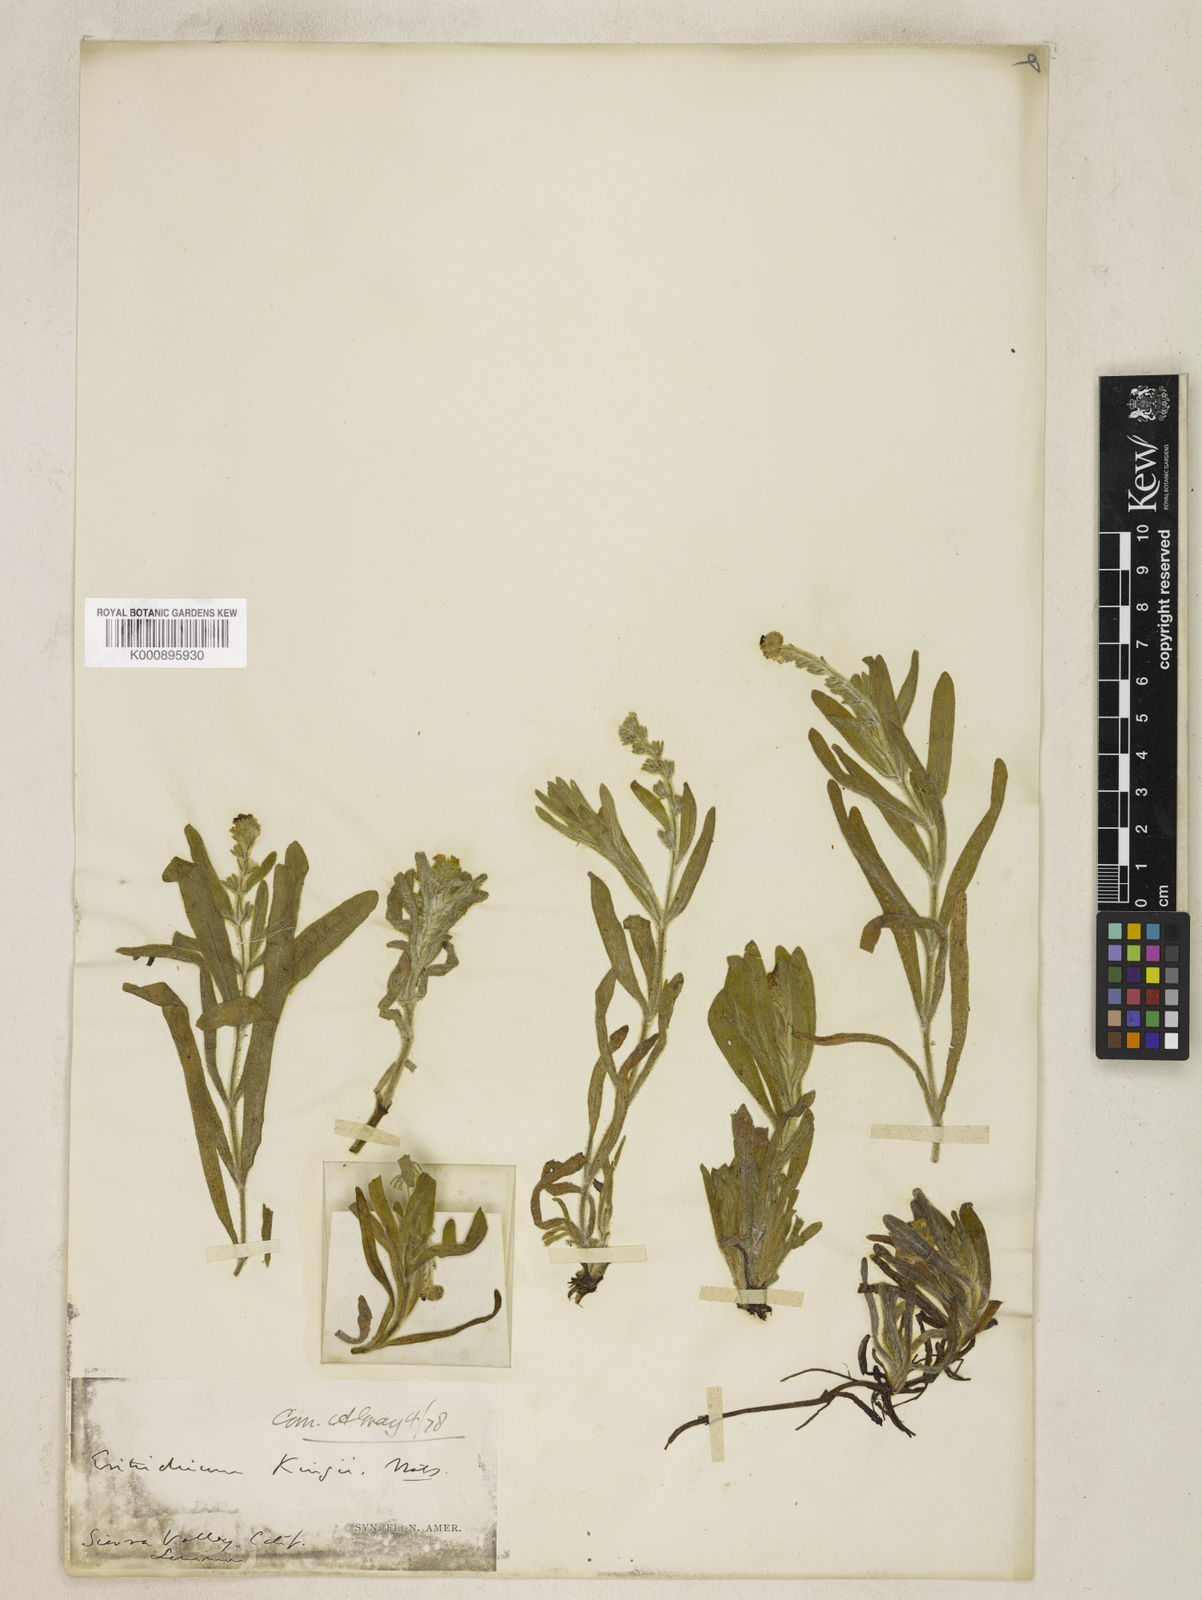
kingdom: Plantae
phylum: Tracheophyta
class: Magnoliopsida
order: Boraginales
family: Boraginaceae
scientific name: Boraginaceae
